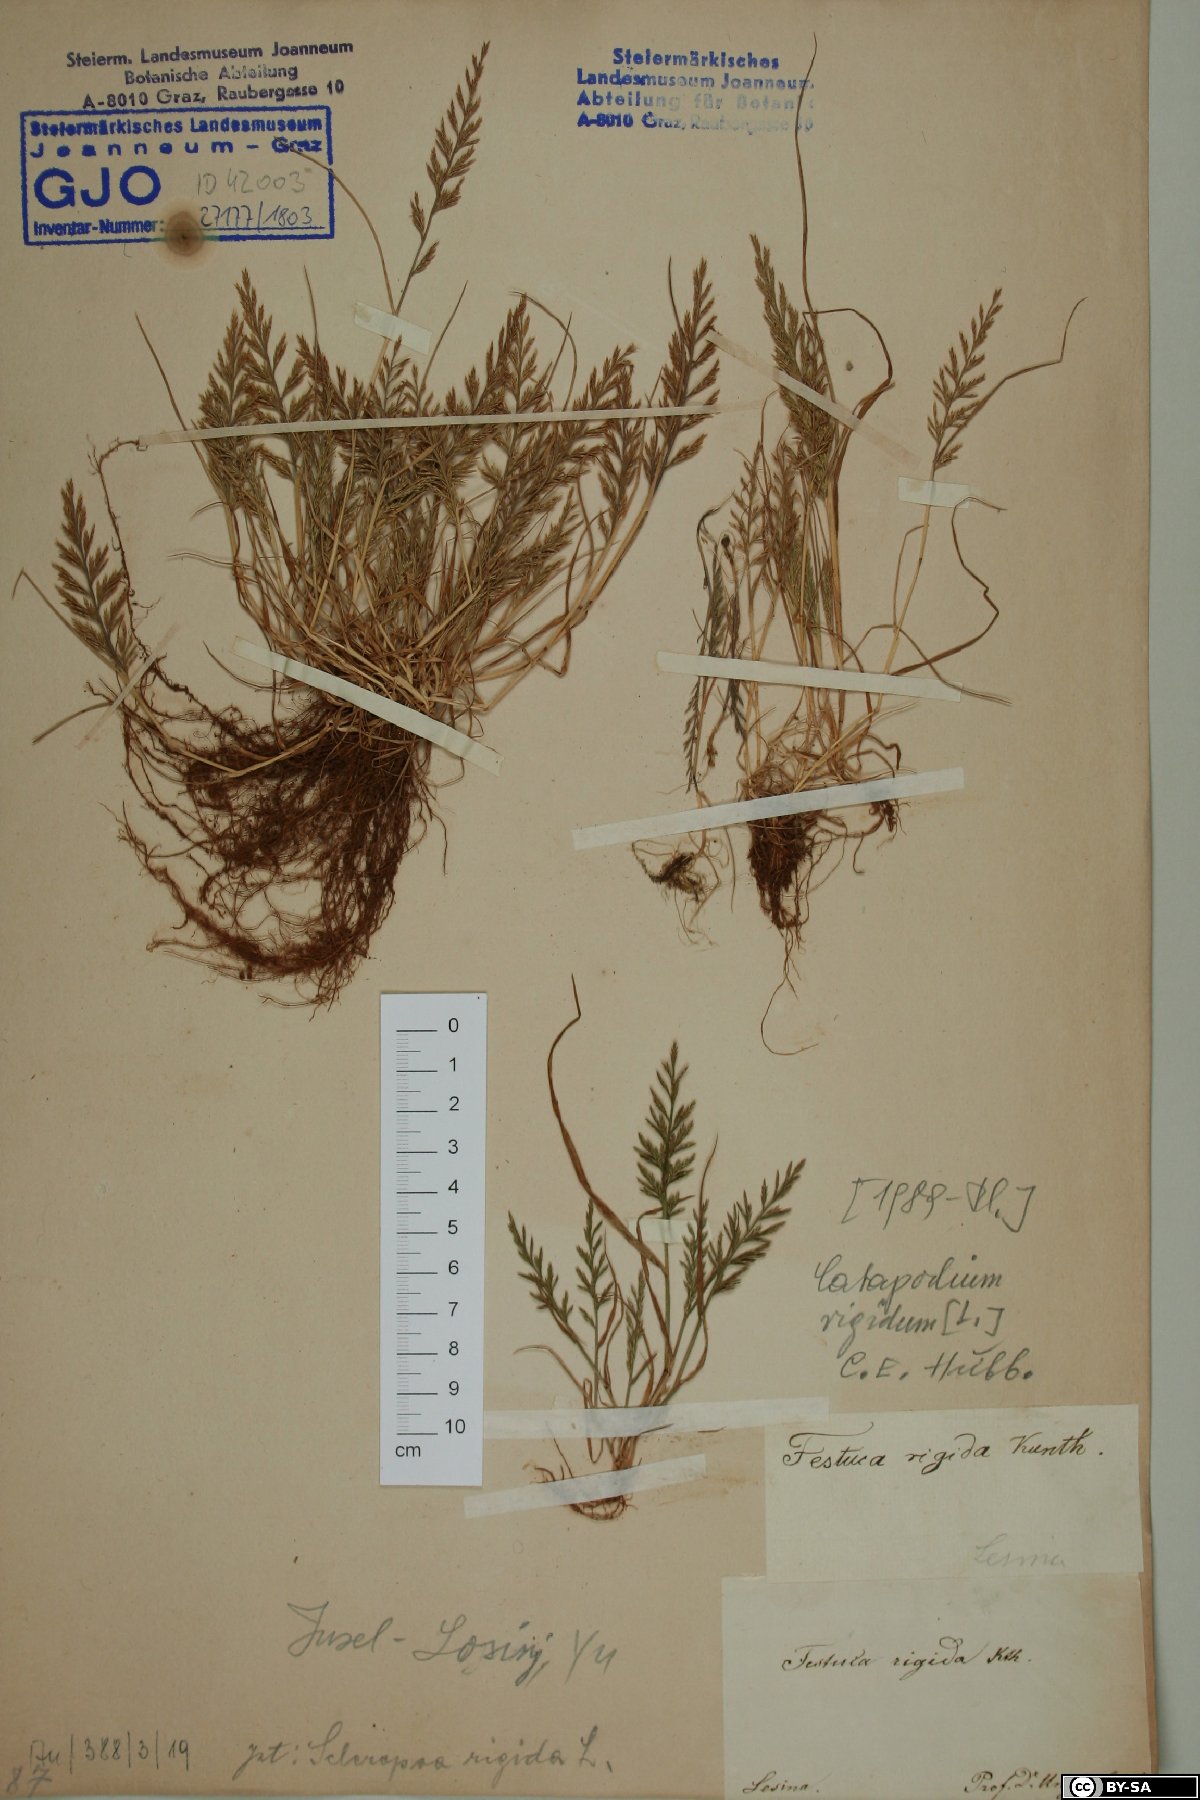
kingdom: Plantae
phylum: Tracheophyta
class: Liliopsida
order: Poales
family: Poaceae
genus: Catapodium
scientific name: Catapodium rigidum
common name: Fern-grass
